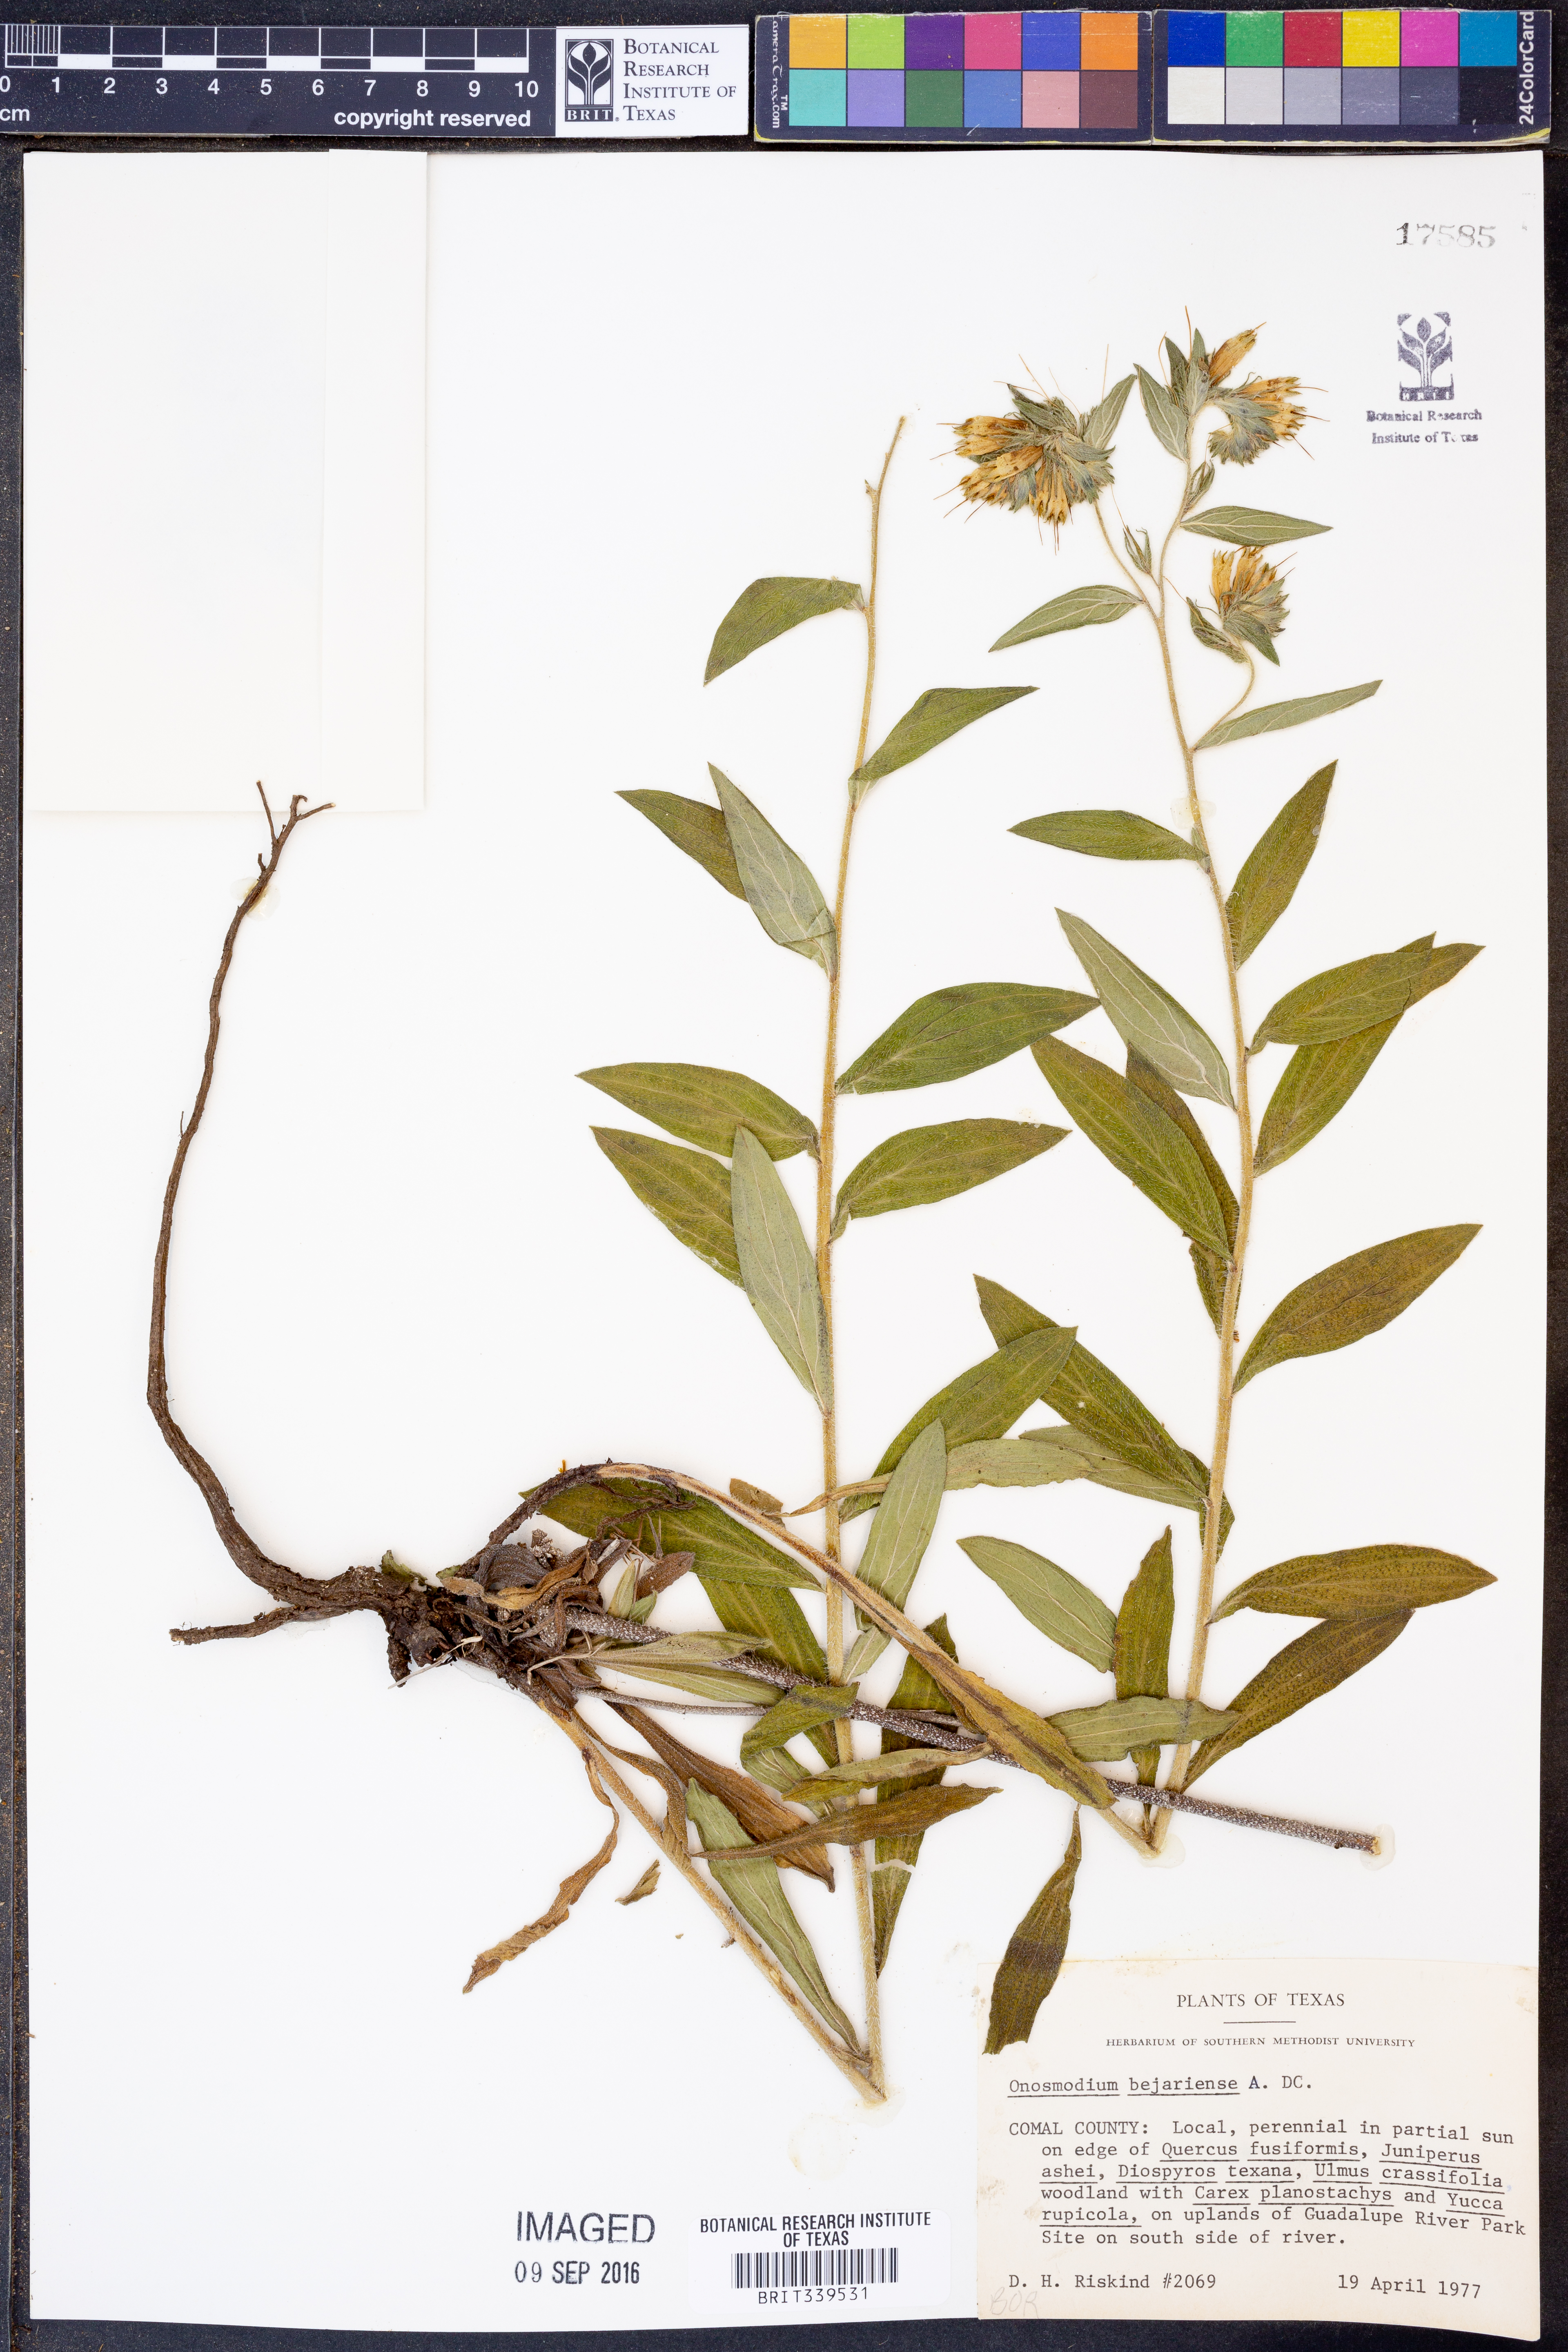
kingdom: Plantae
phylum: Tracheophyta
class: Magnoliopsida
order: Boraginales
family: Boraginaceae
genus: Lithospermum
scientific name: Lithospermum molle
